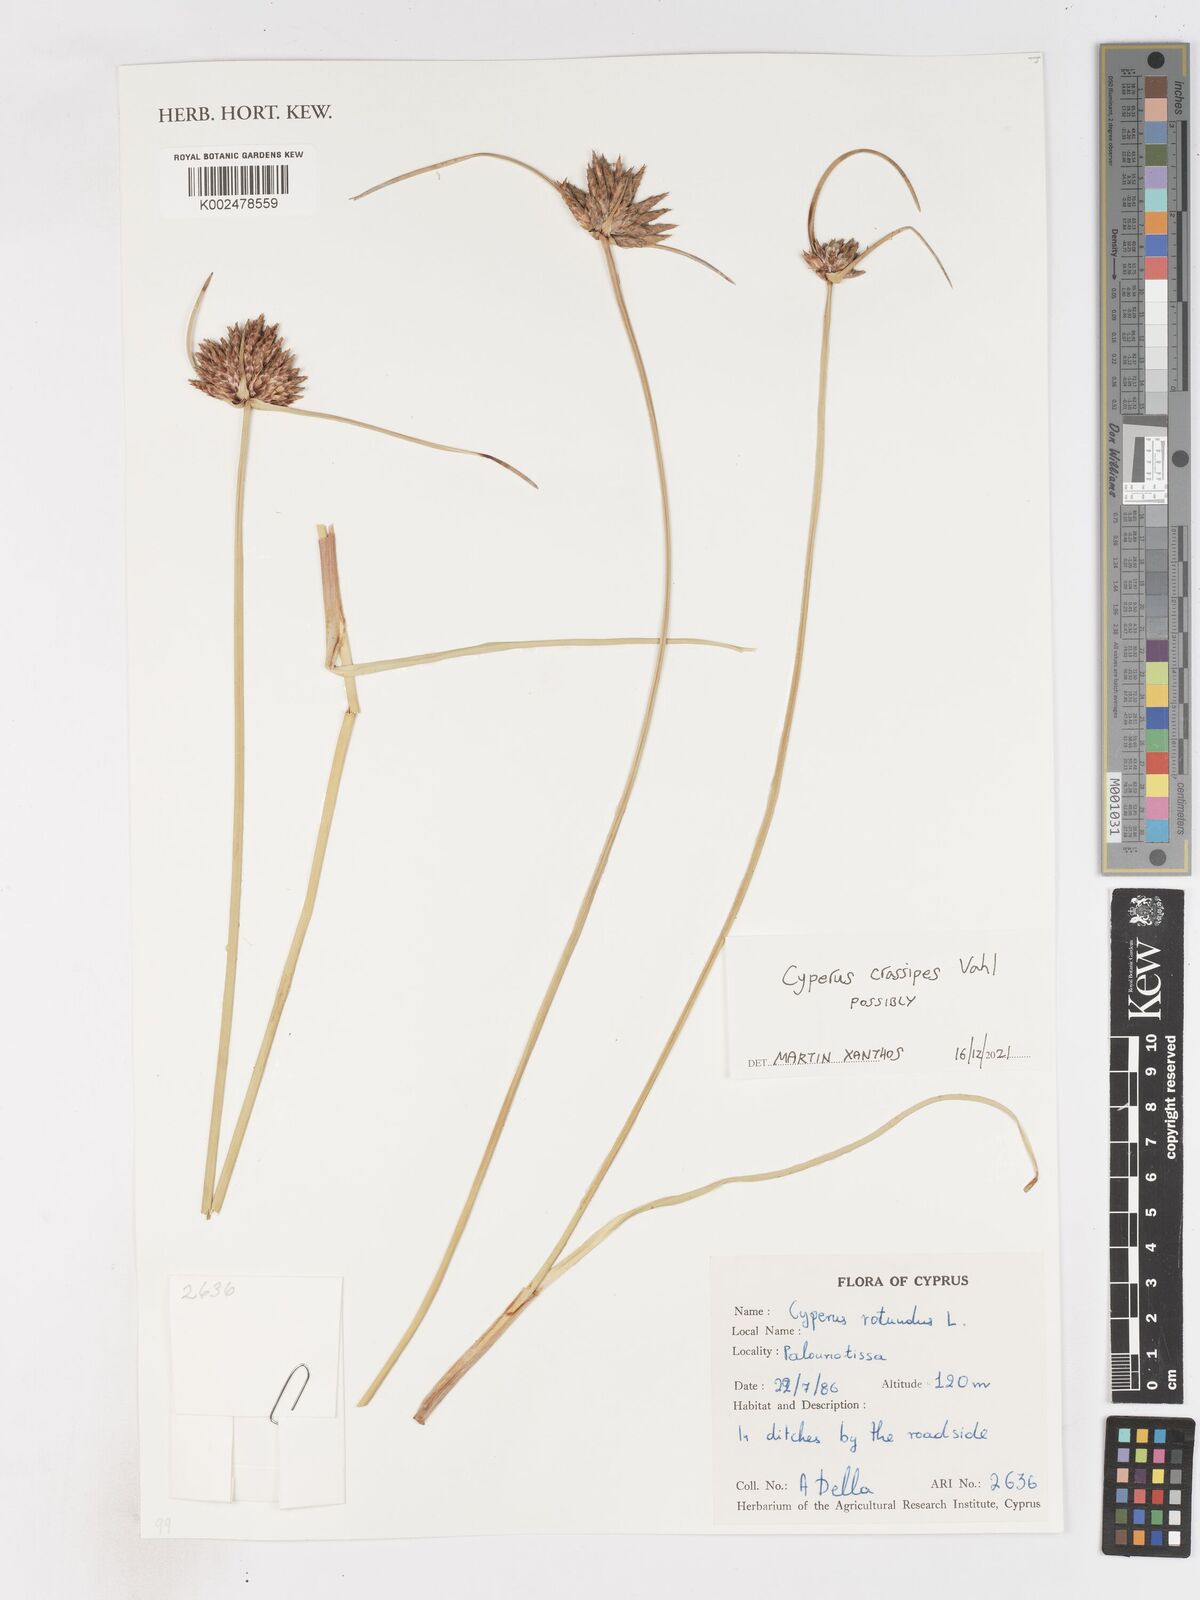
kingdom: Plantae
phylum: Tracheophyta
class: Liliopsida
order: Poales
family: Cyperaceae
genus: Cyperus
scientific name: Cyperus crassipes
